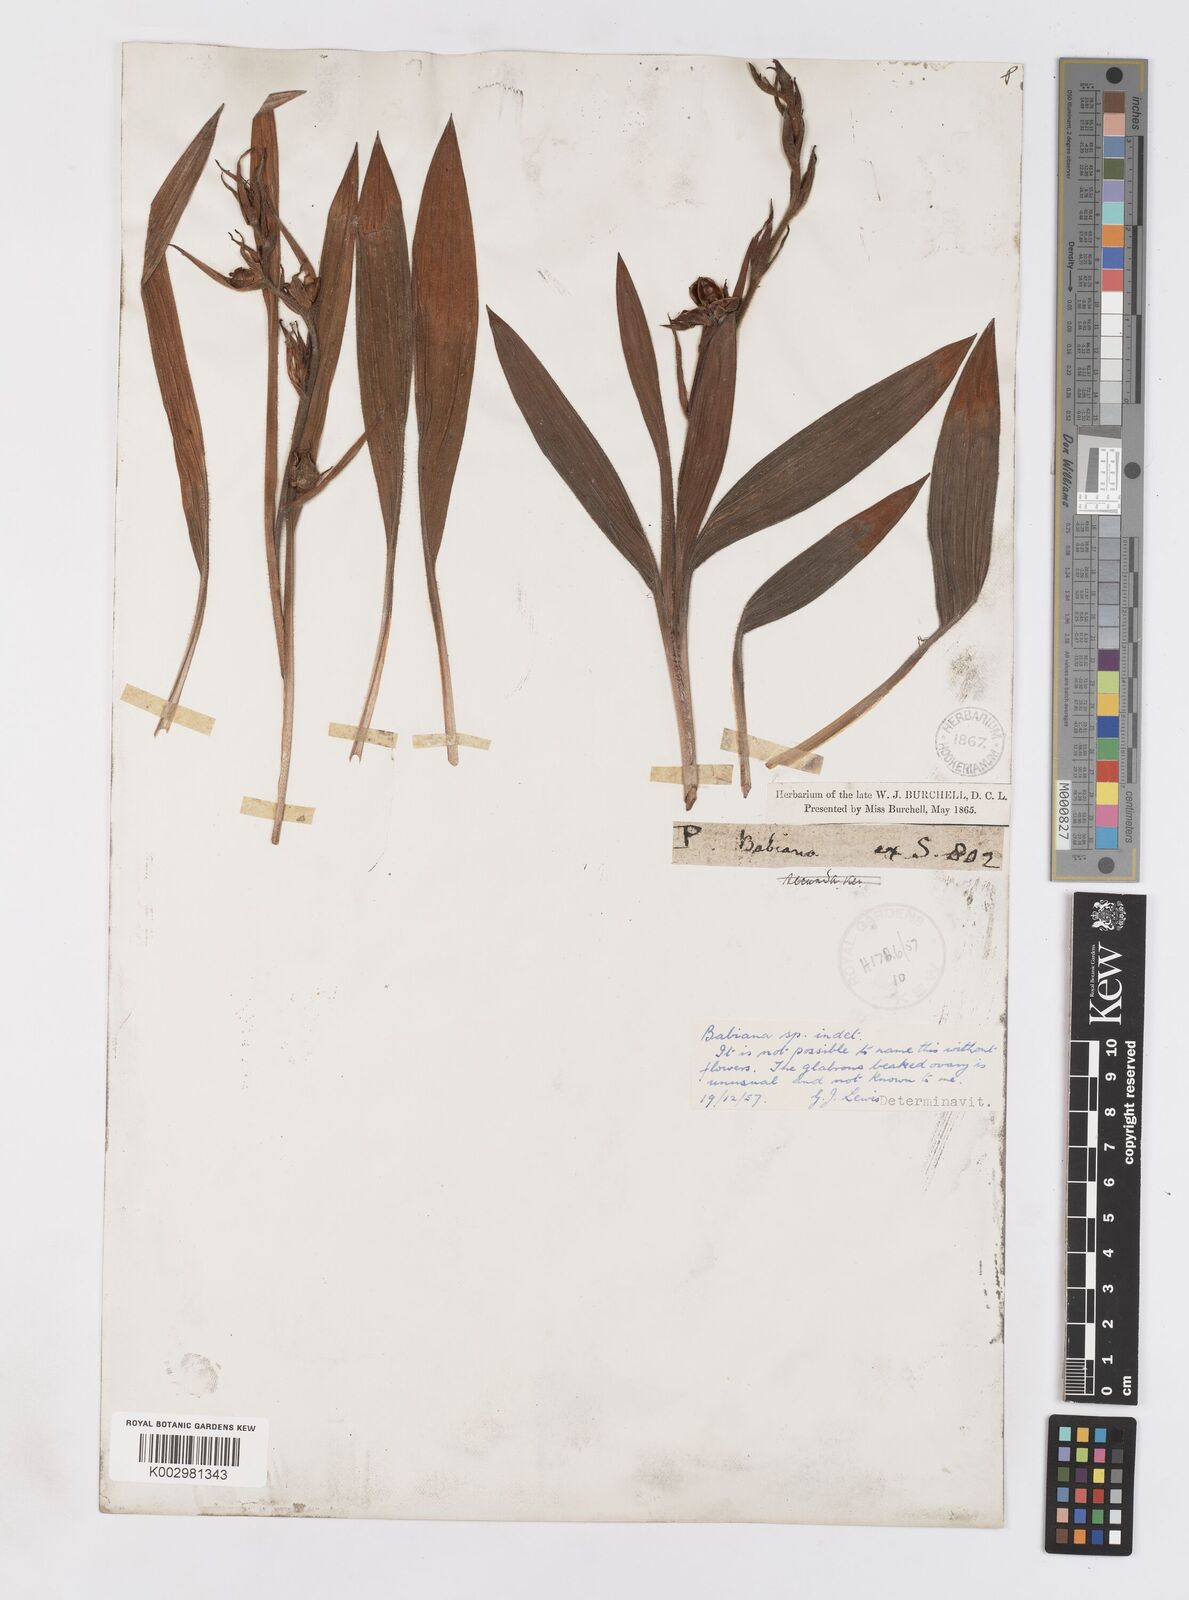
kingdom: Plantae
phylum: Tracheophyta
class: Liliopsida
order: Asparagales
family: Iridaceae
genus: Babiana
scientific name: Babiana
